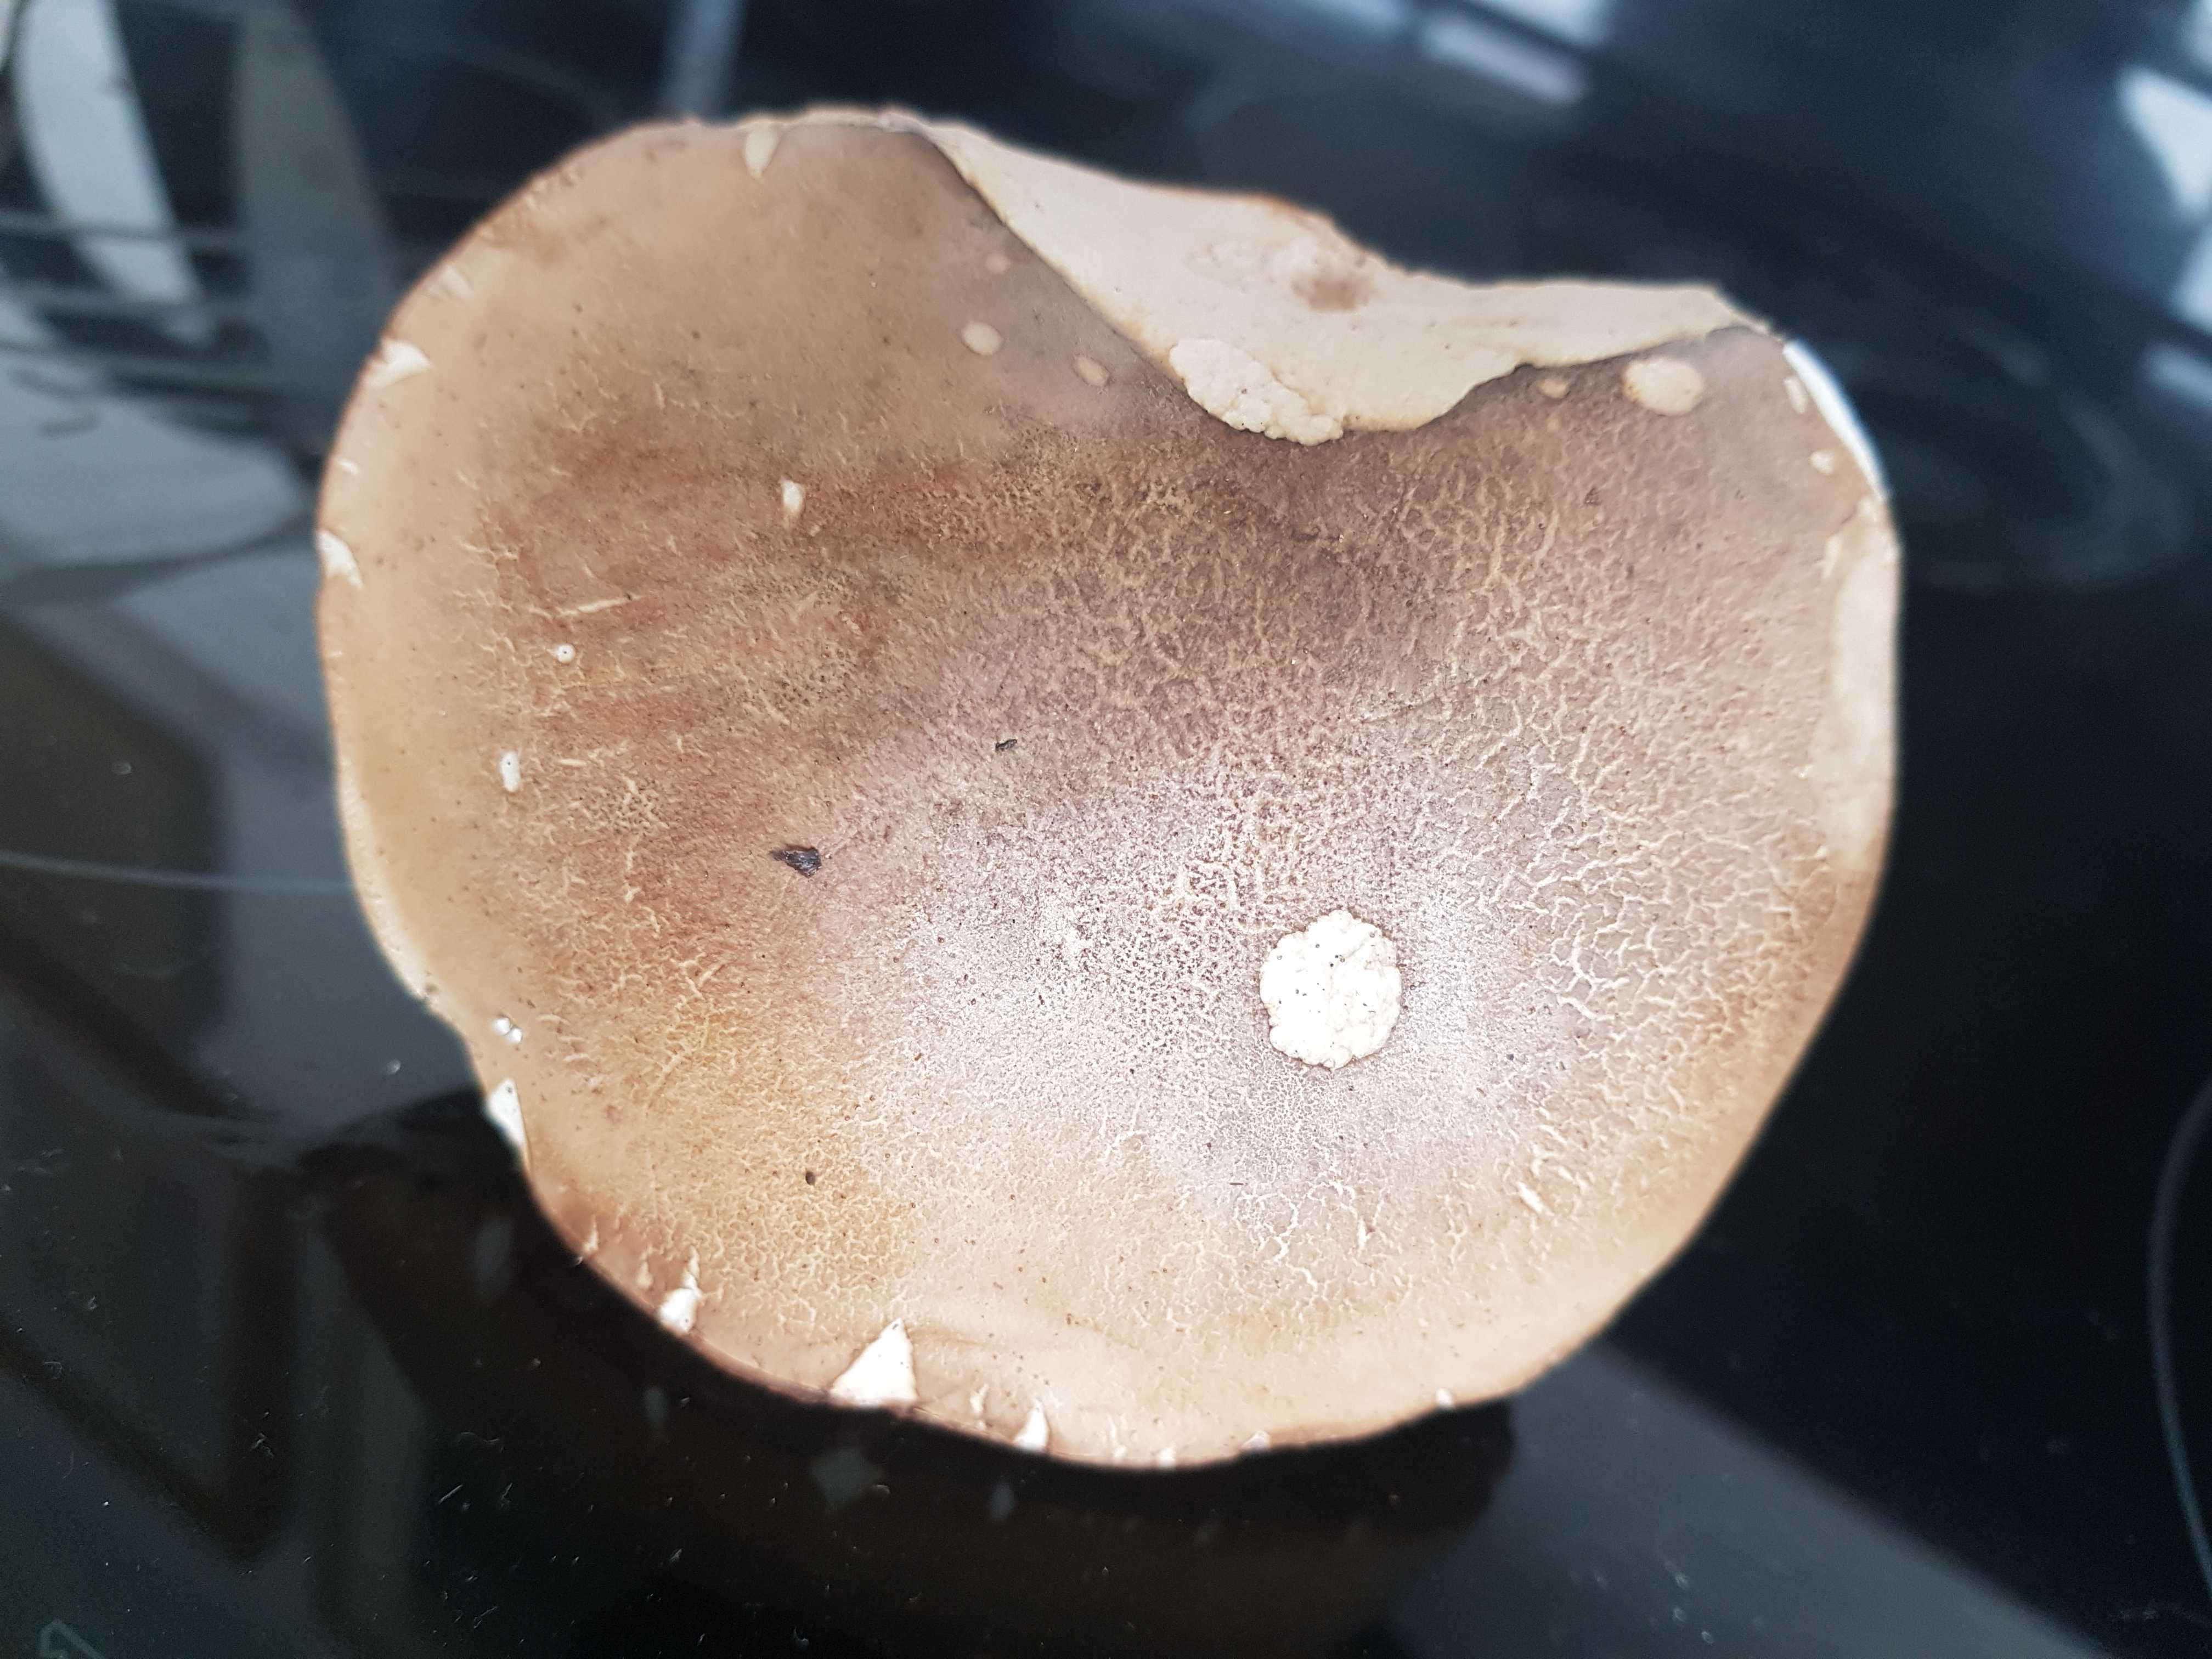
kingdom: Fungi
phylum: Basidiomycota
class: Agaricomycetes
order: Boletales
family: Boletaceae
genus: Tylopilus
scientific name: Tylopilus felleus
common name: galderørhat
